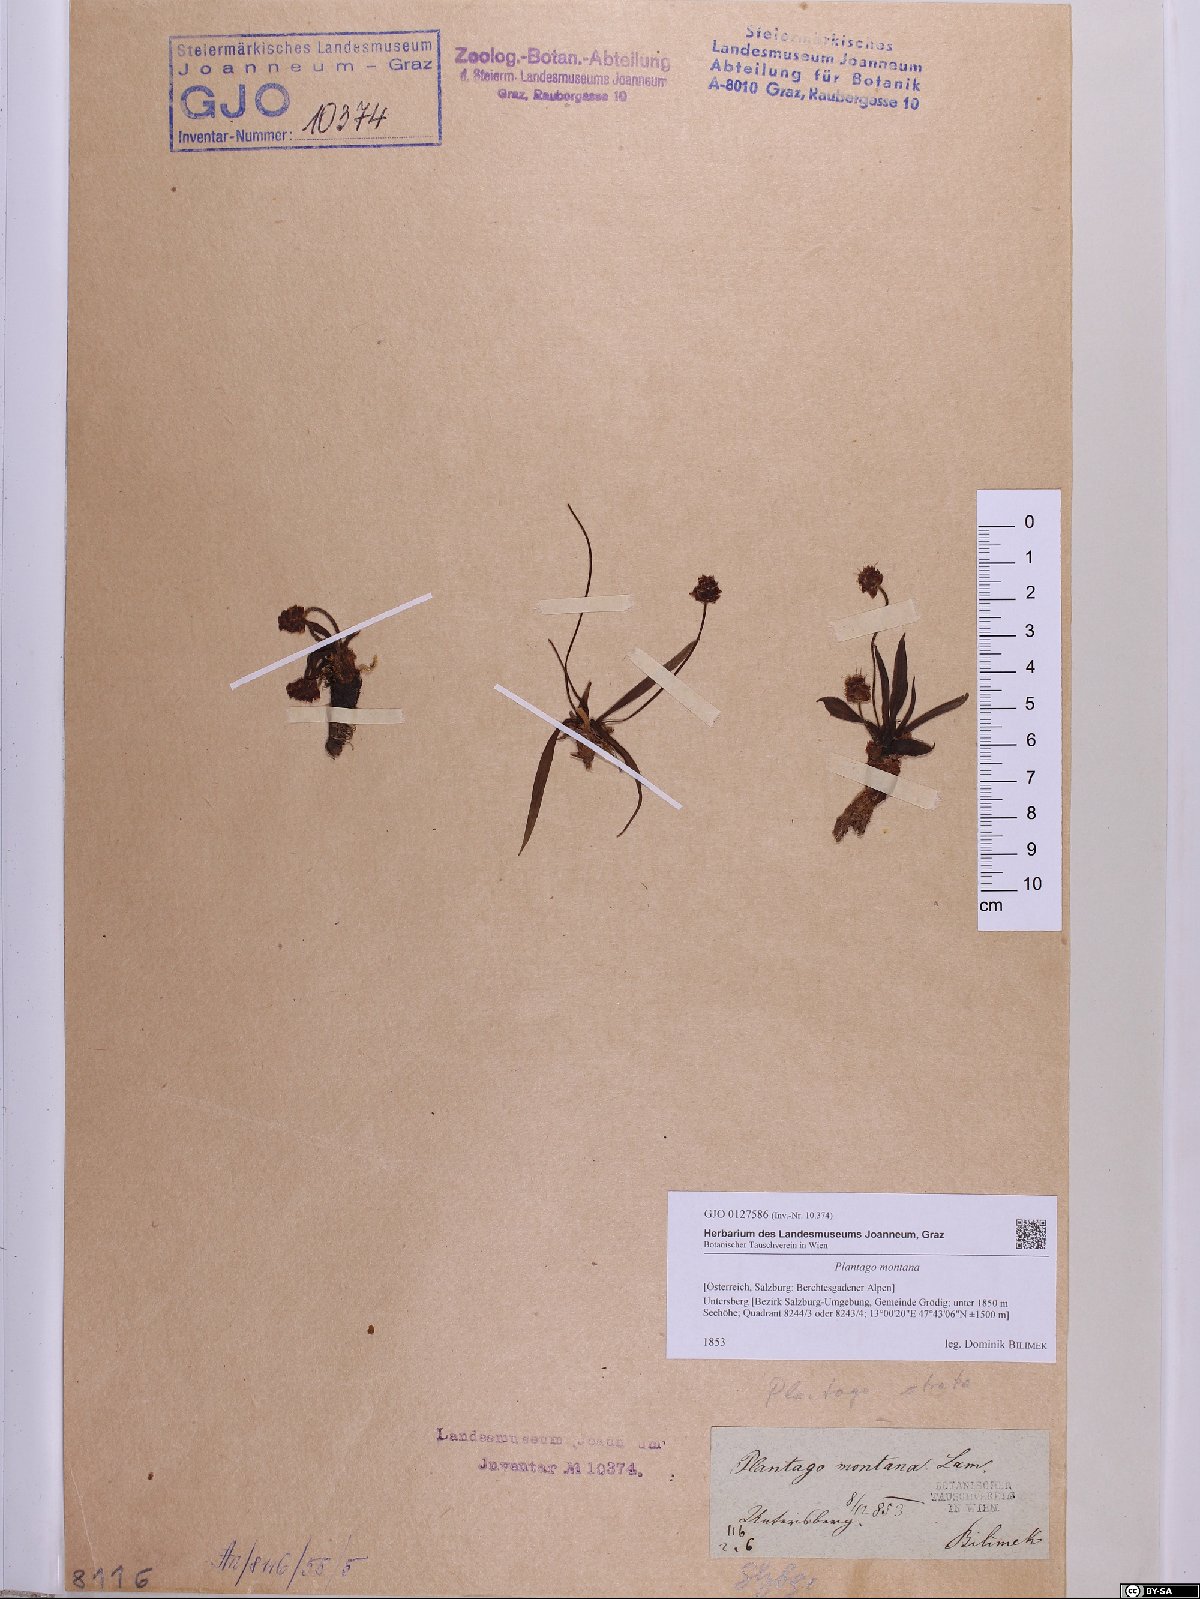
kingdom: Plantae
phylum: Tracheophyta
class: Magnoliopsida
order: Lamiales
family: Plantaginaceae
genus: Plantago
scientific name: Plantago atrata
